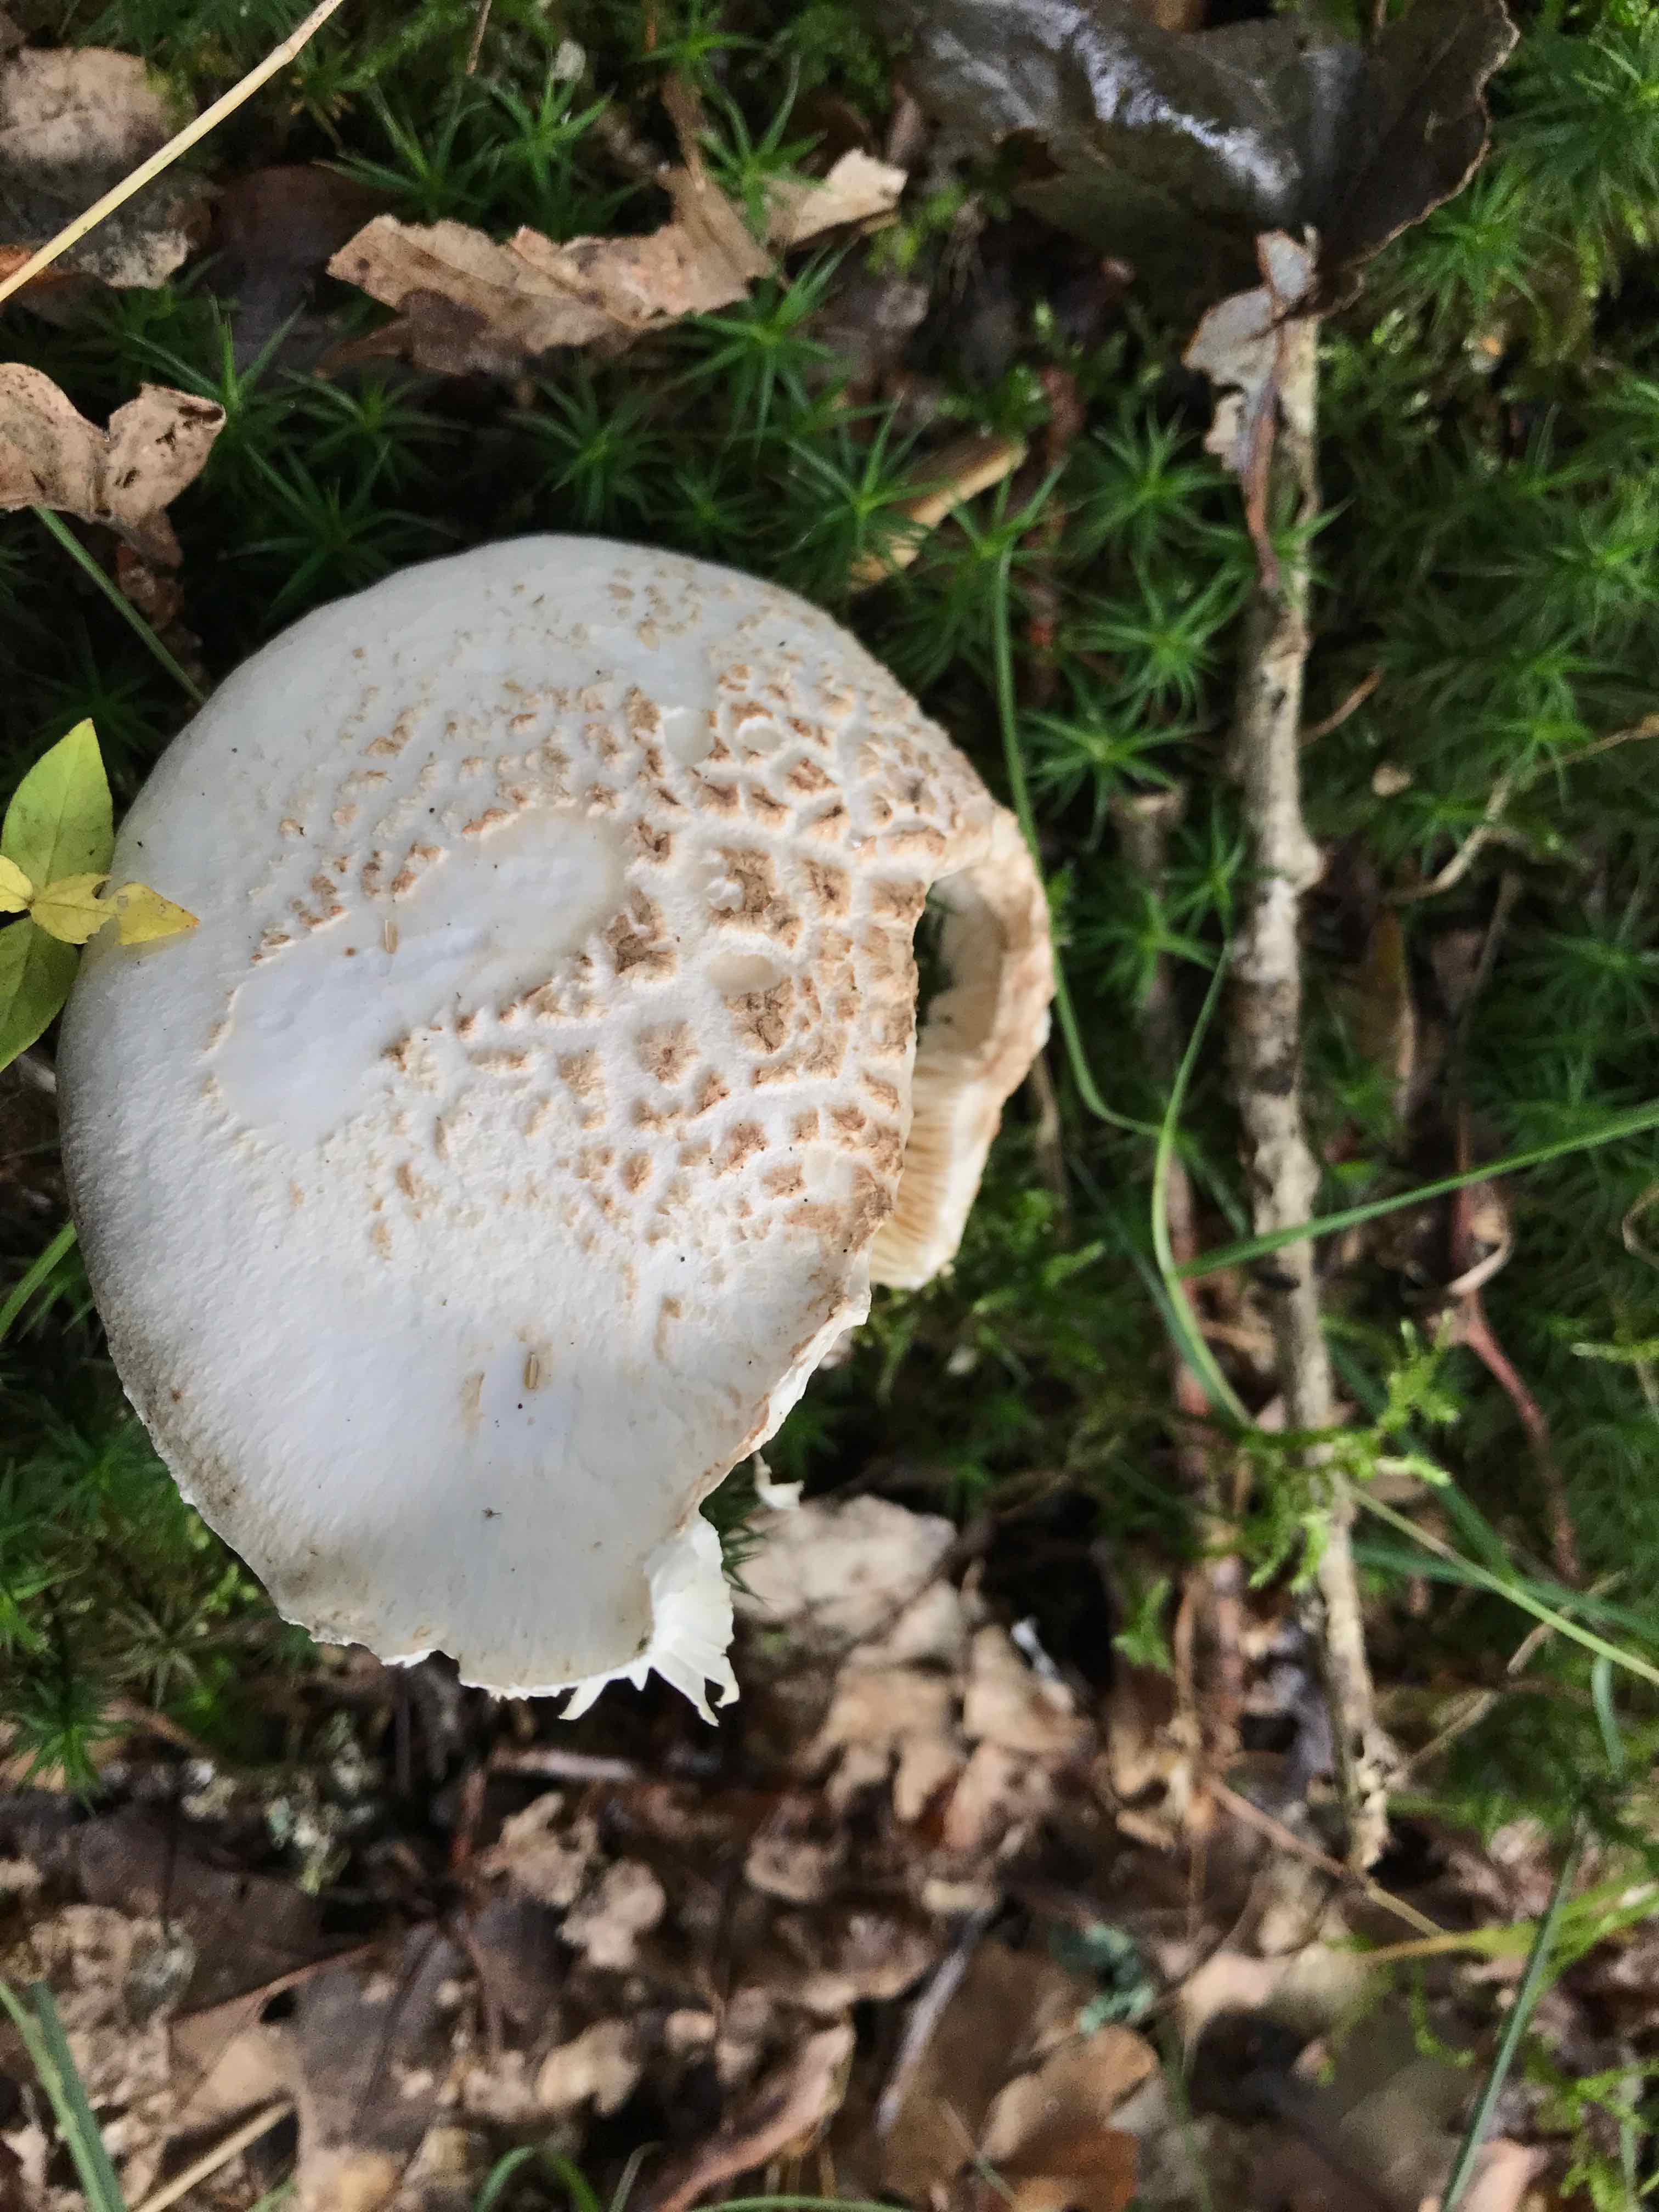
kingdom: Fungi
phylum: Basidiomycota
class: Agaricomycetes
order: Agaricales
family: Amanitaceae
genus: Amanita
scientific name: Amanita citrina
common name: False death-cap
